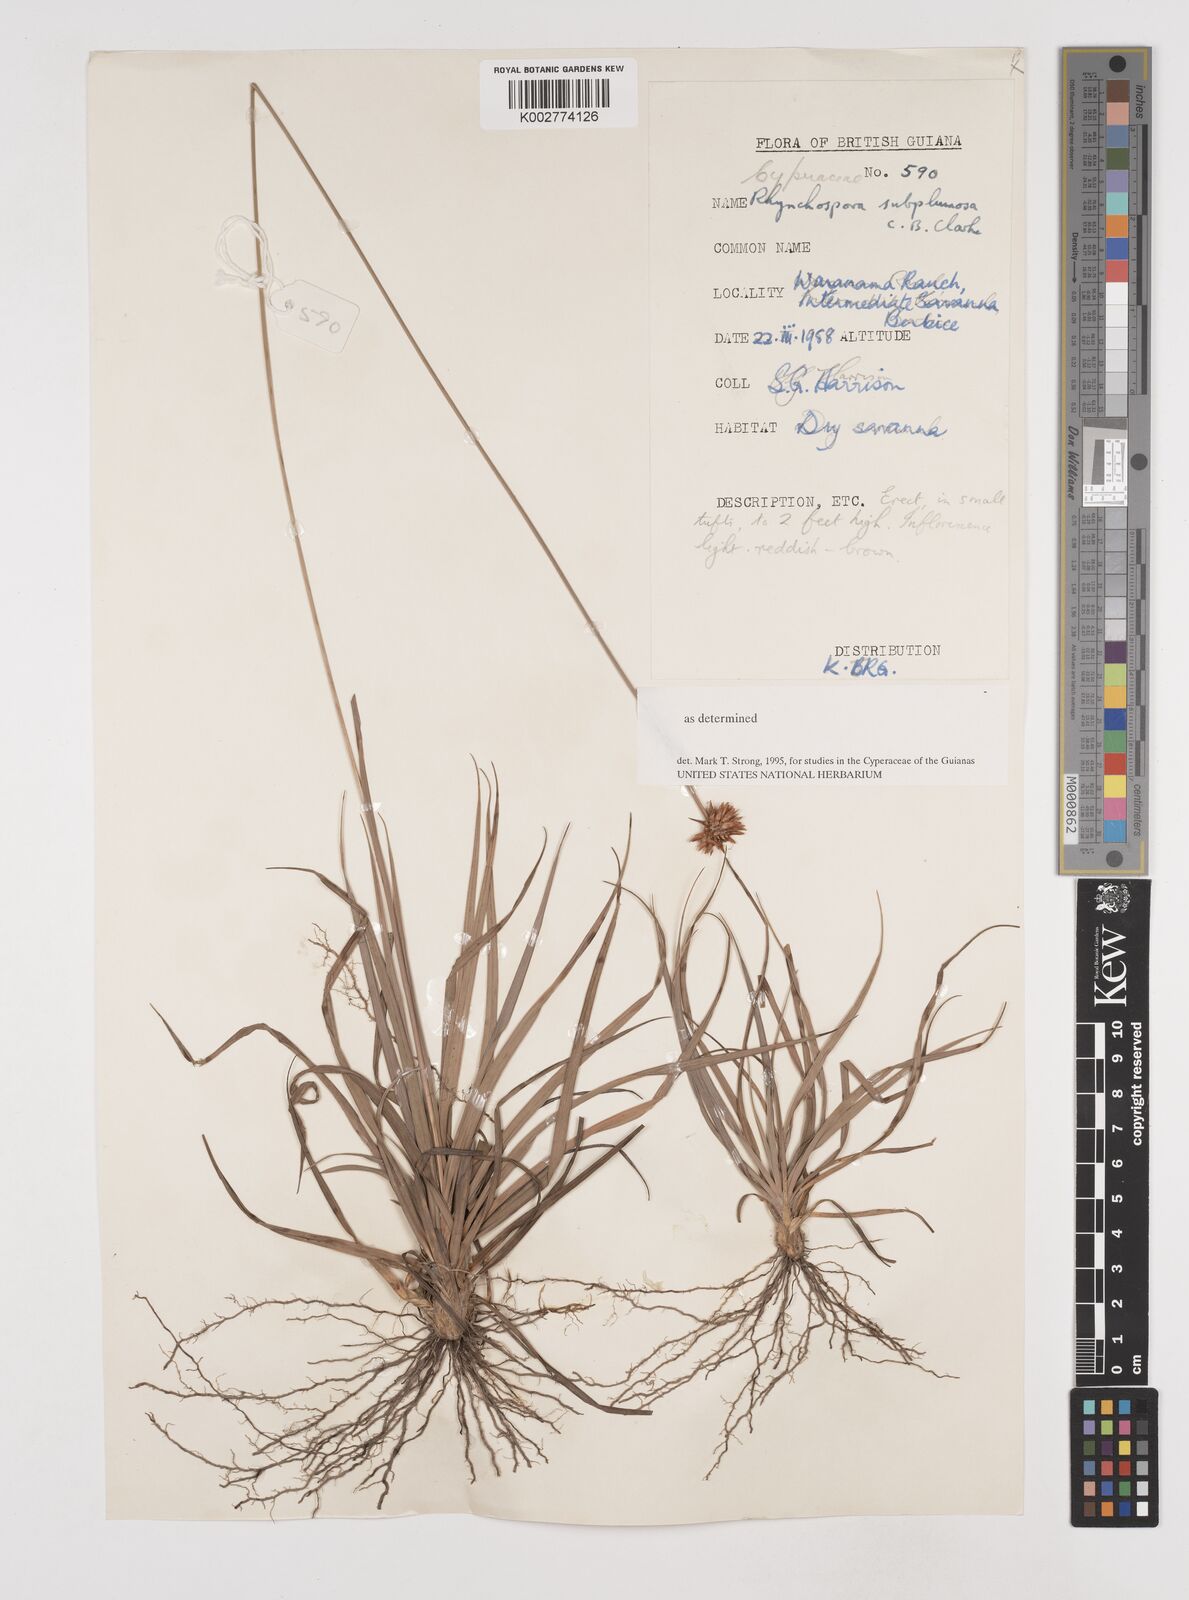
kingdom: Plantae
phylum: Tracheophyta
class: Liliopsida
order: Poales
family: Cyperaceae
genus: Rhynchospora
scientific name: Rhynchospora subplumosa
